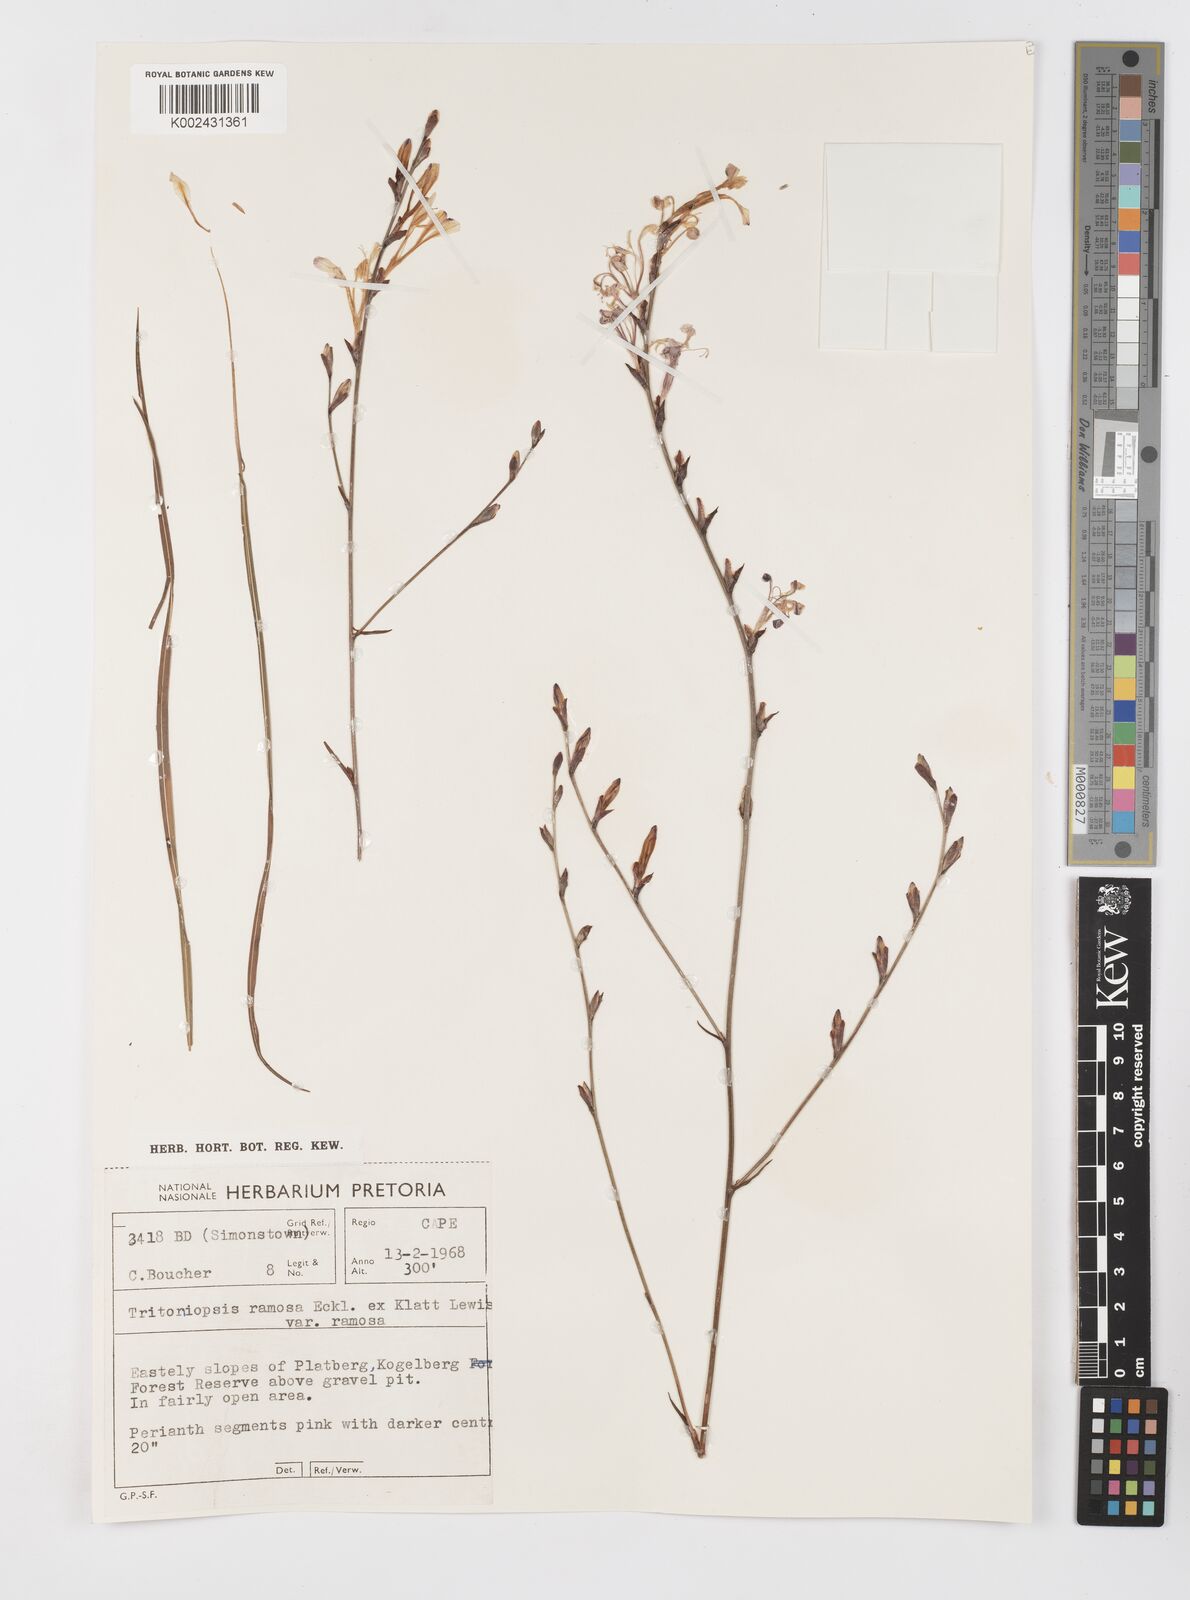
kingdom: Plantae
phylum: Tracheophyta
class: Liliopsida
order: Asparagales
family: Iridaceae
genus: Tritoniopsis
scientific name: Tritoniopsis ramosa
